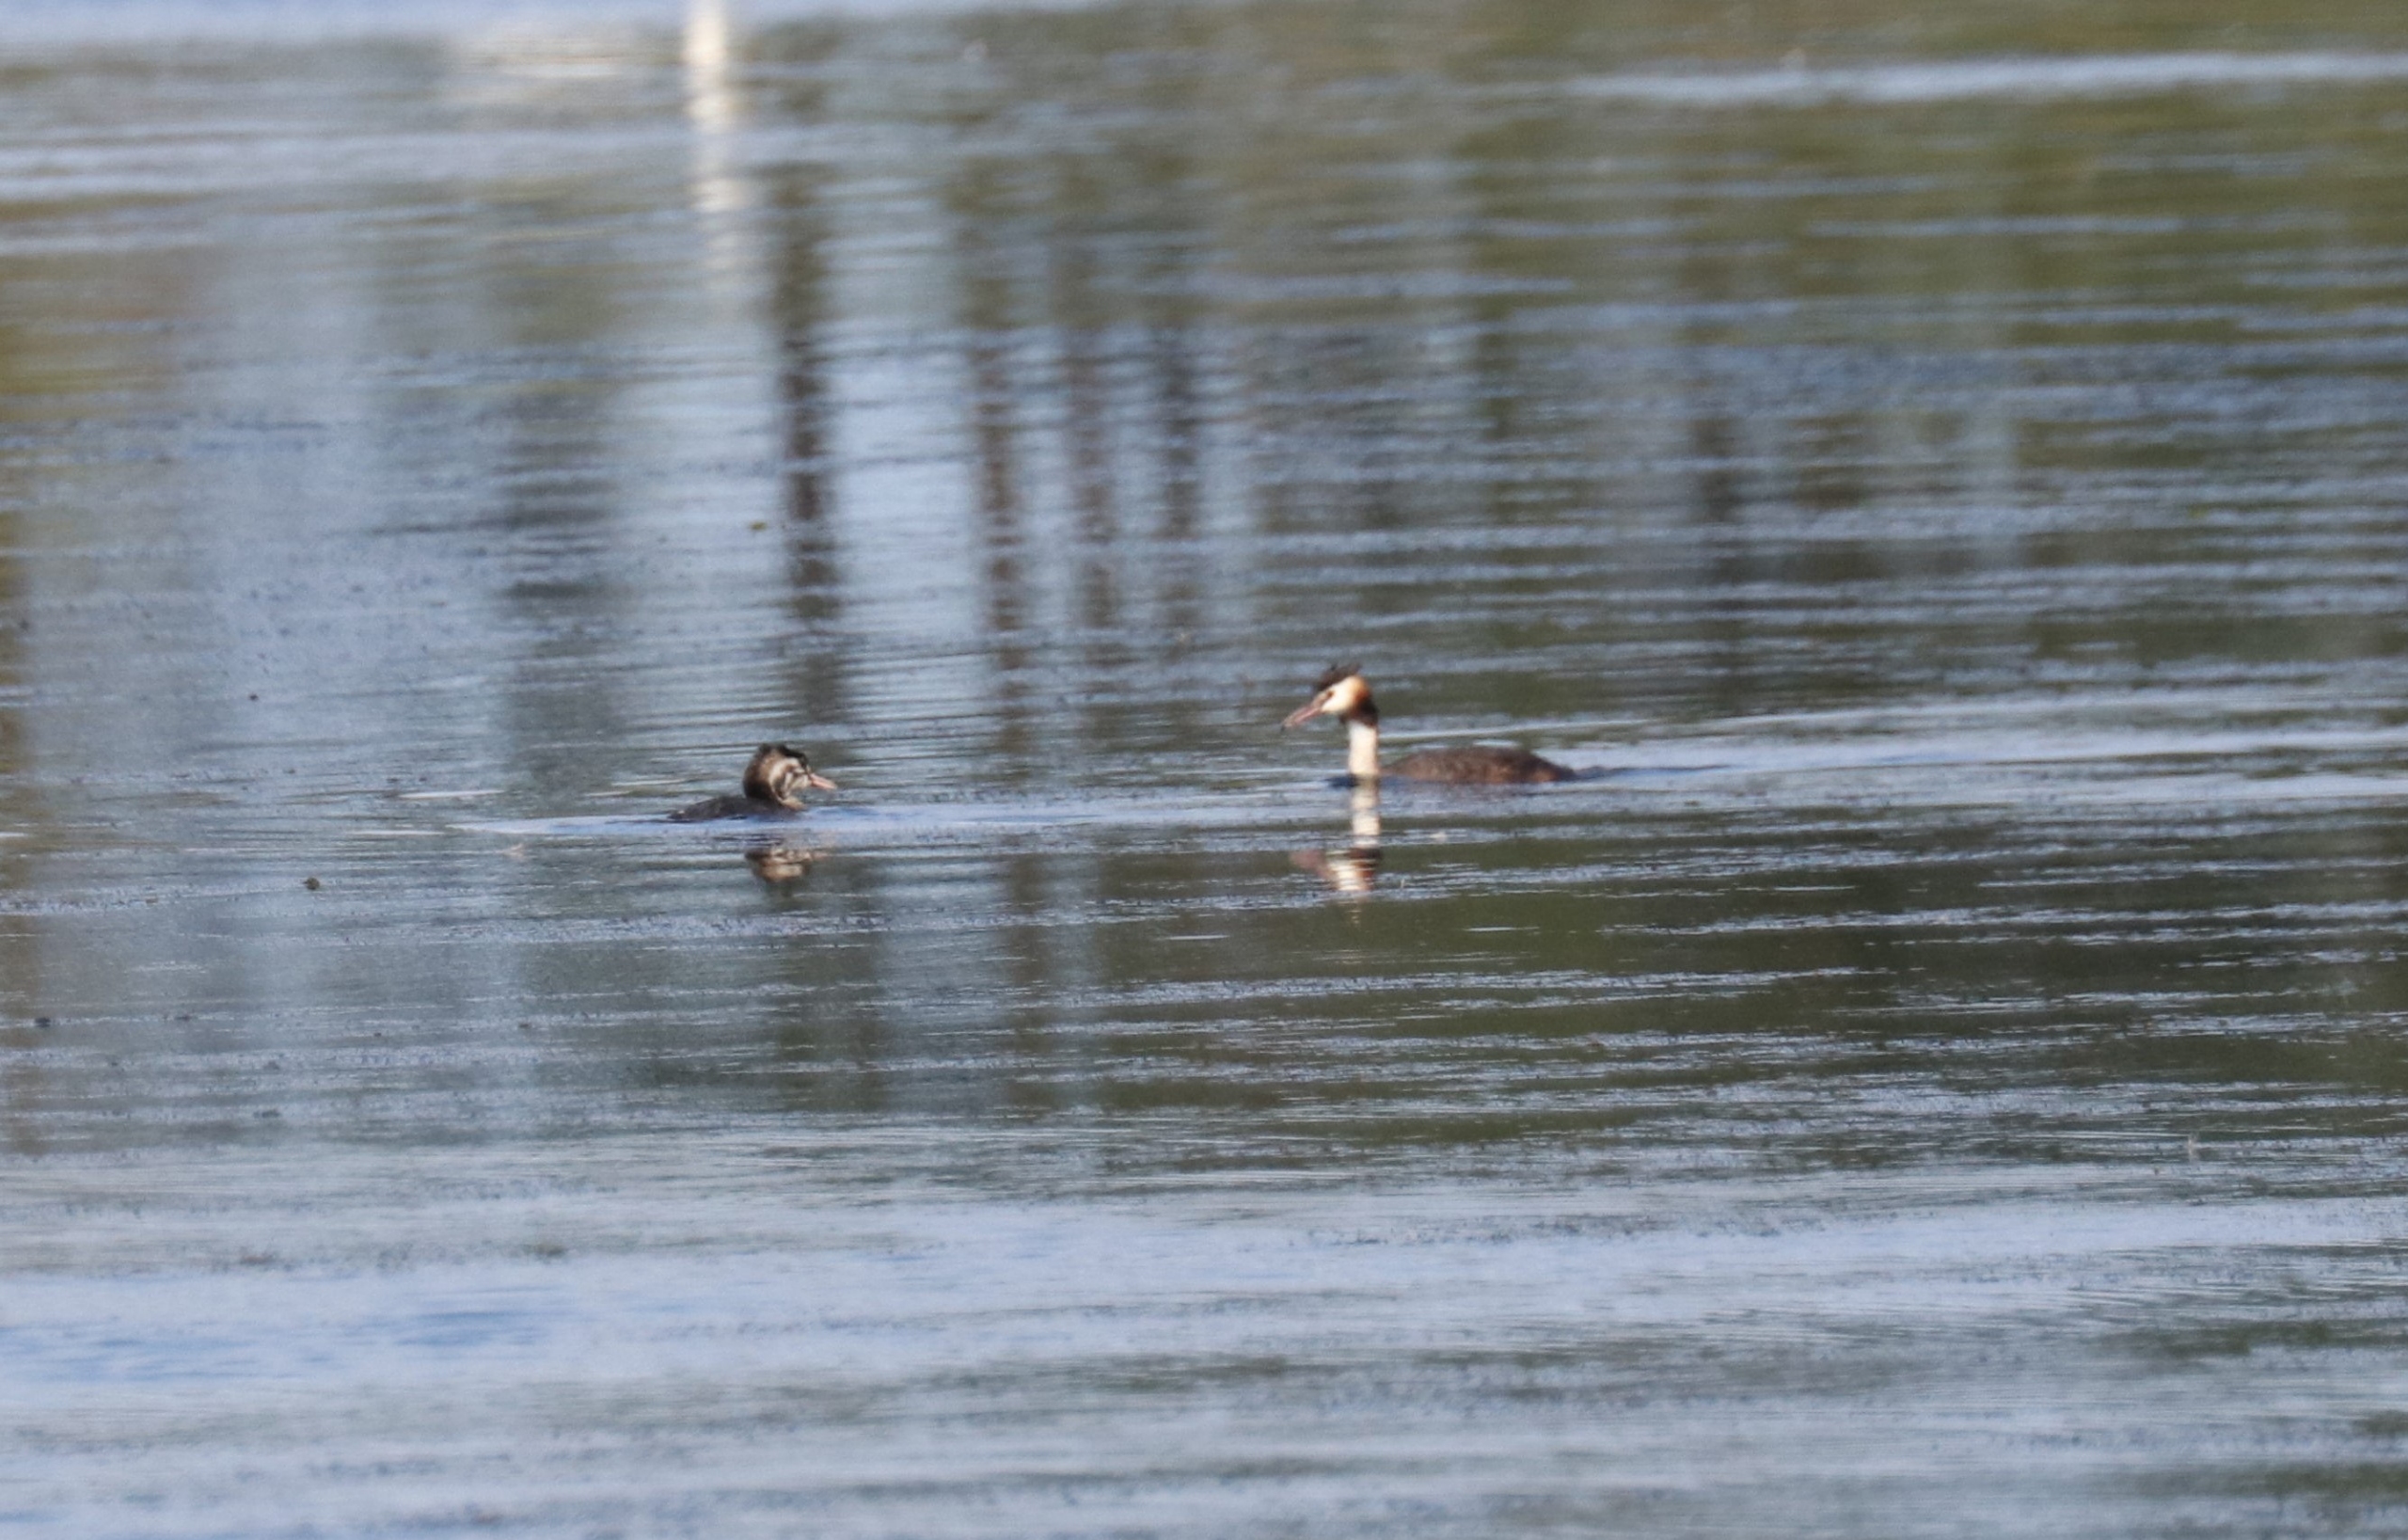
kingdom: Animalia
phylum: Chordata
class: Aves
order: Podicipediformes
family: Podicipedidae
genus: Podiceps
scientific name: Podiceps cristatus
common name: Toppet lappedykker
